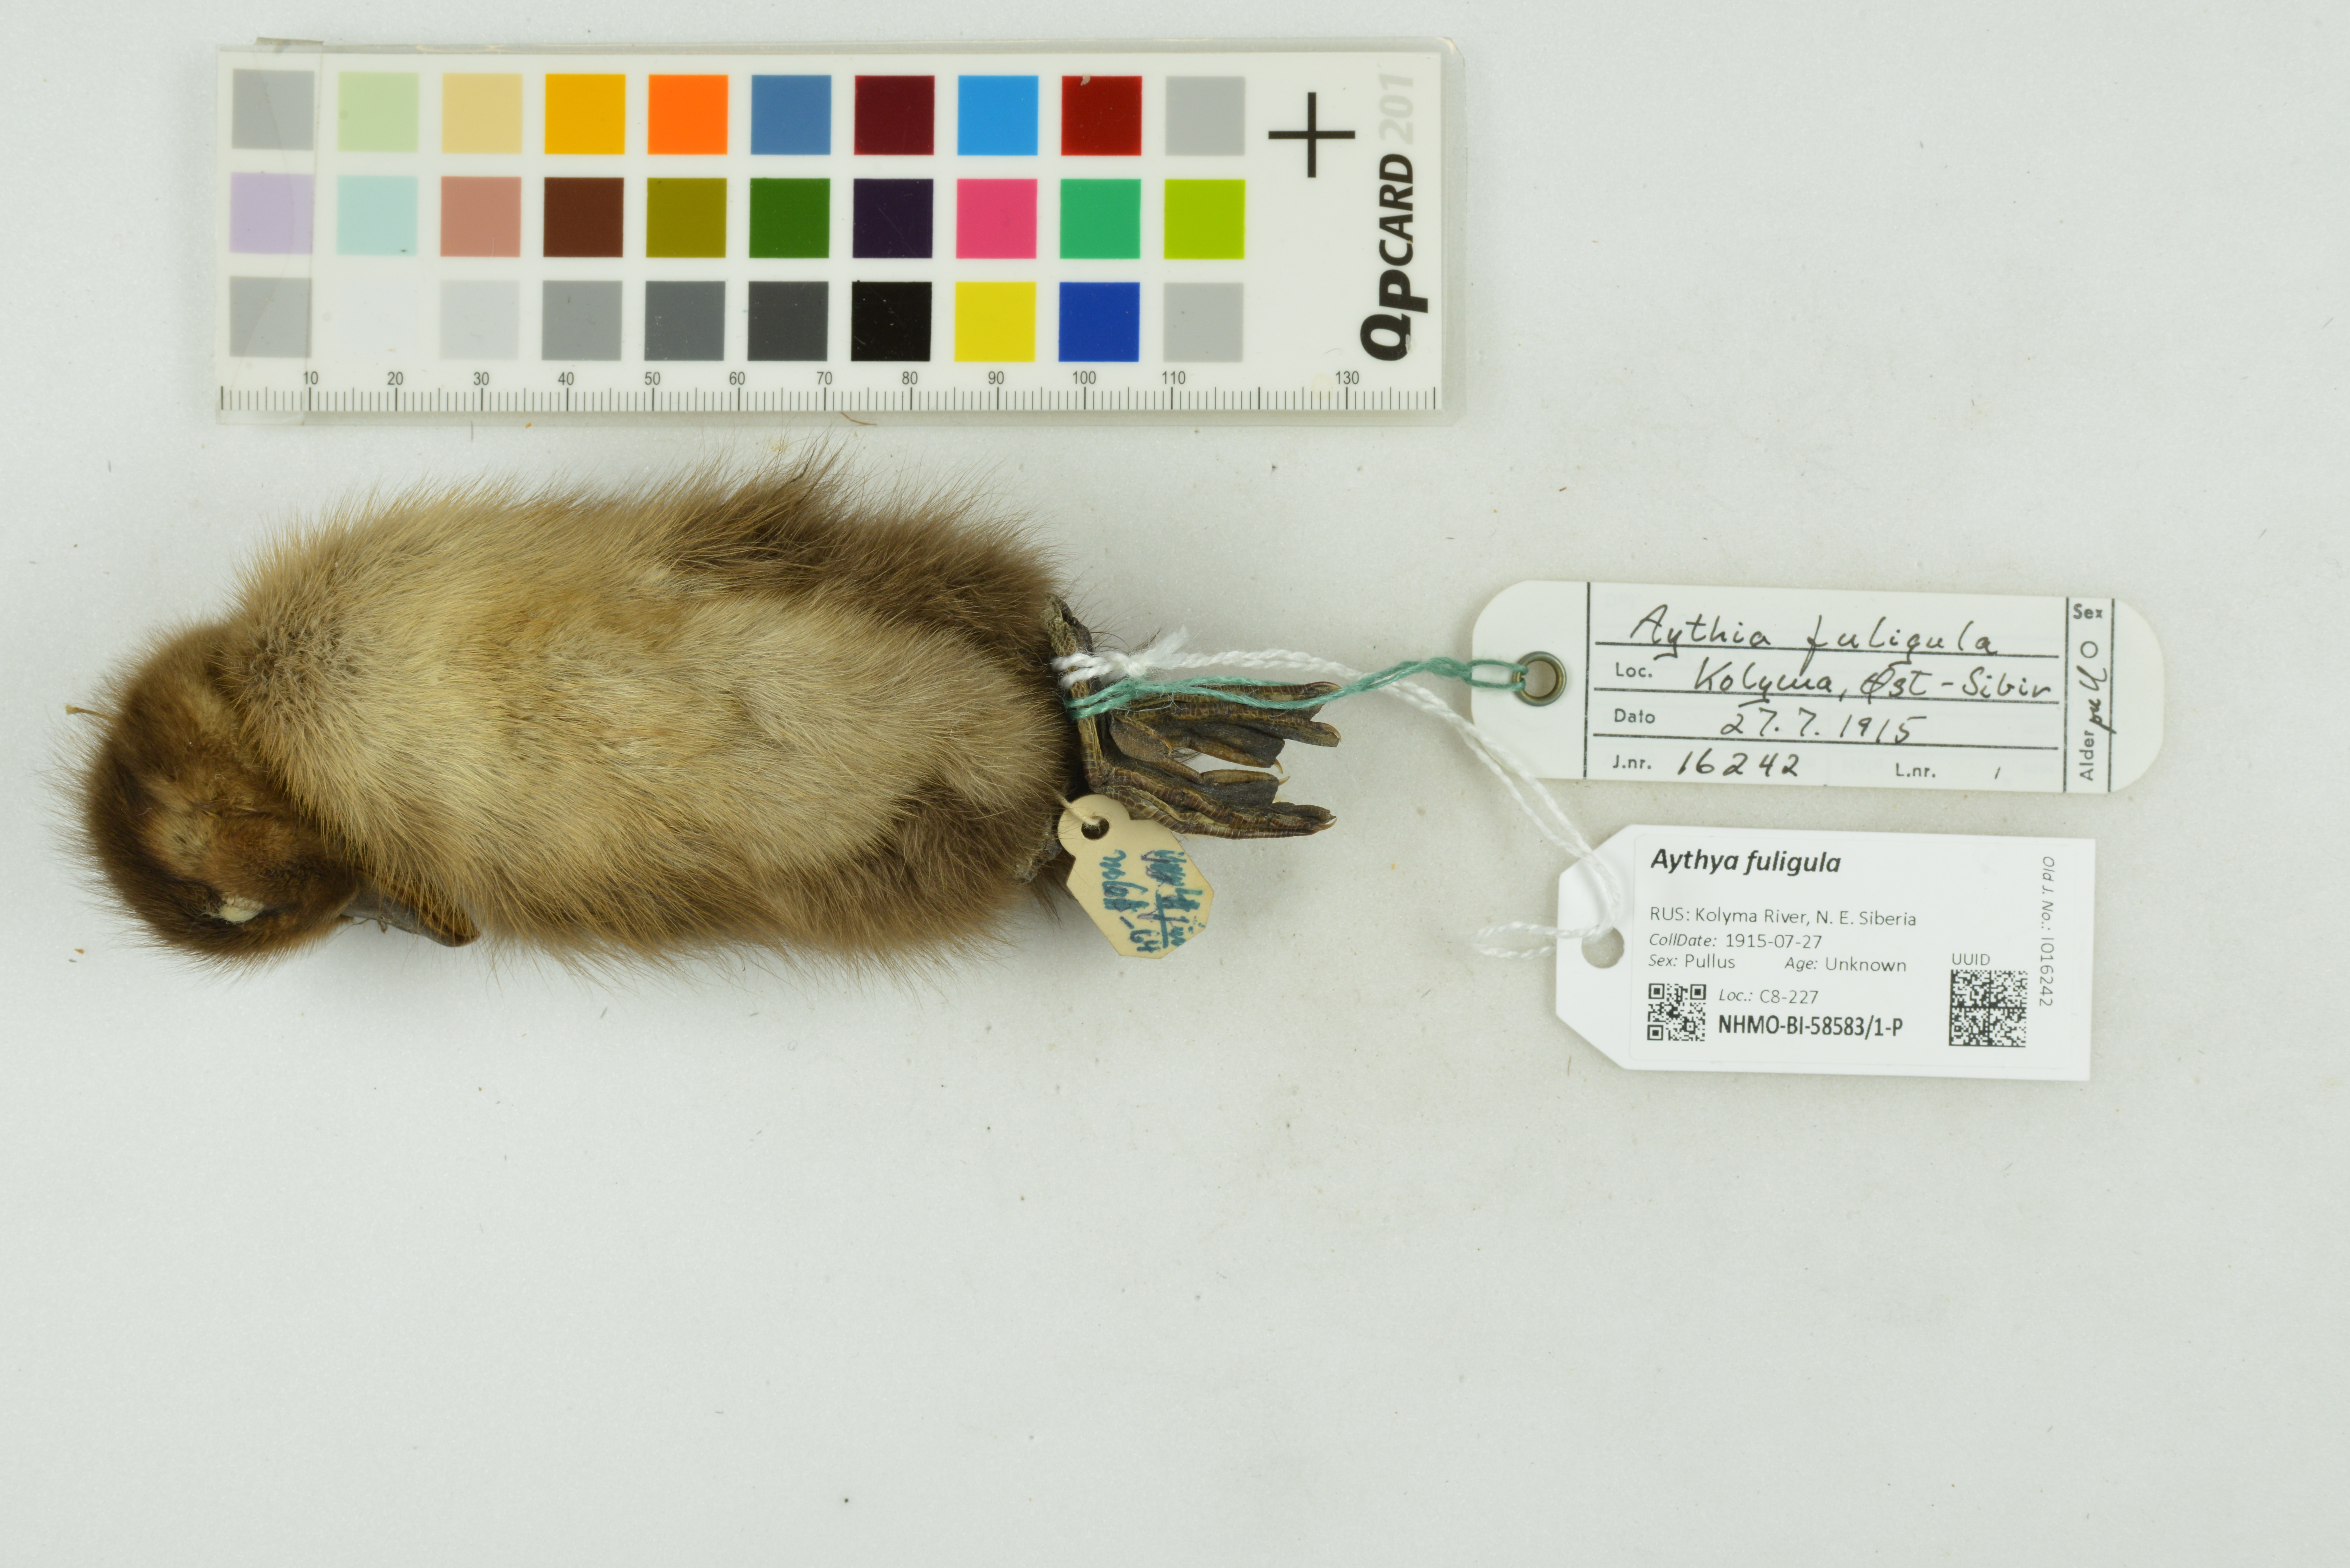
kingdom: Animalia
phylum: Chordata
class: Aves
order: Anseriformes
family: Anatidae
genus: Aythya
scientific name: Aythya fuligula
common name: Tufted duck
